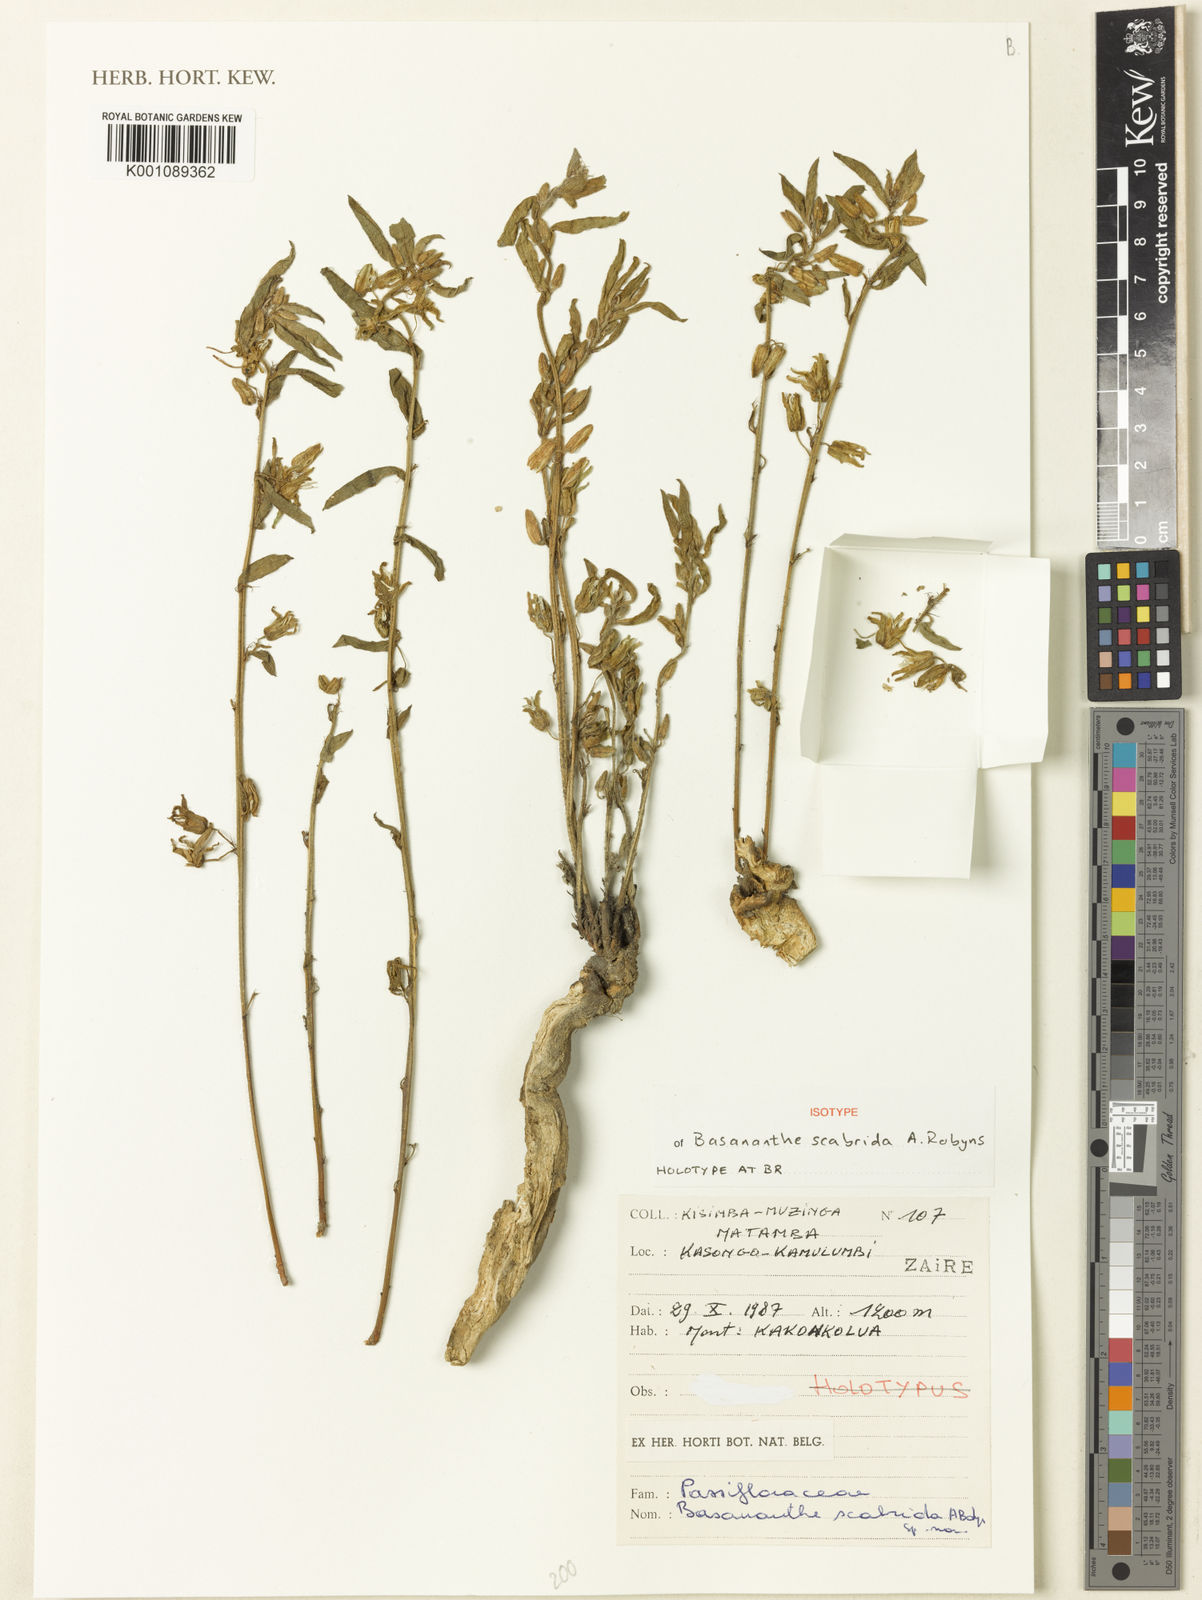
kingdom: Plantae
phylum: Tracheophyta
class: Magnoliopsida
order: Malpighiales
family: Passifloraceae
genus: Basananthe
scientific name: Basananthe scabrida
